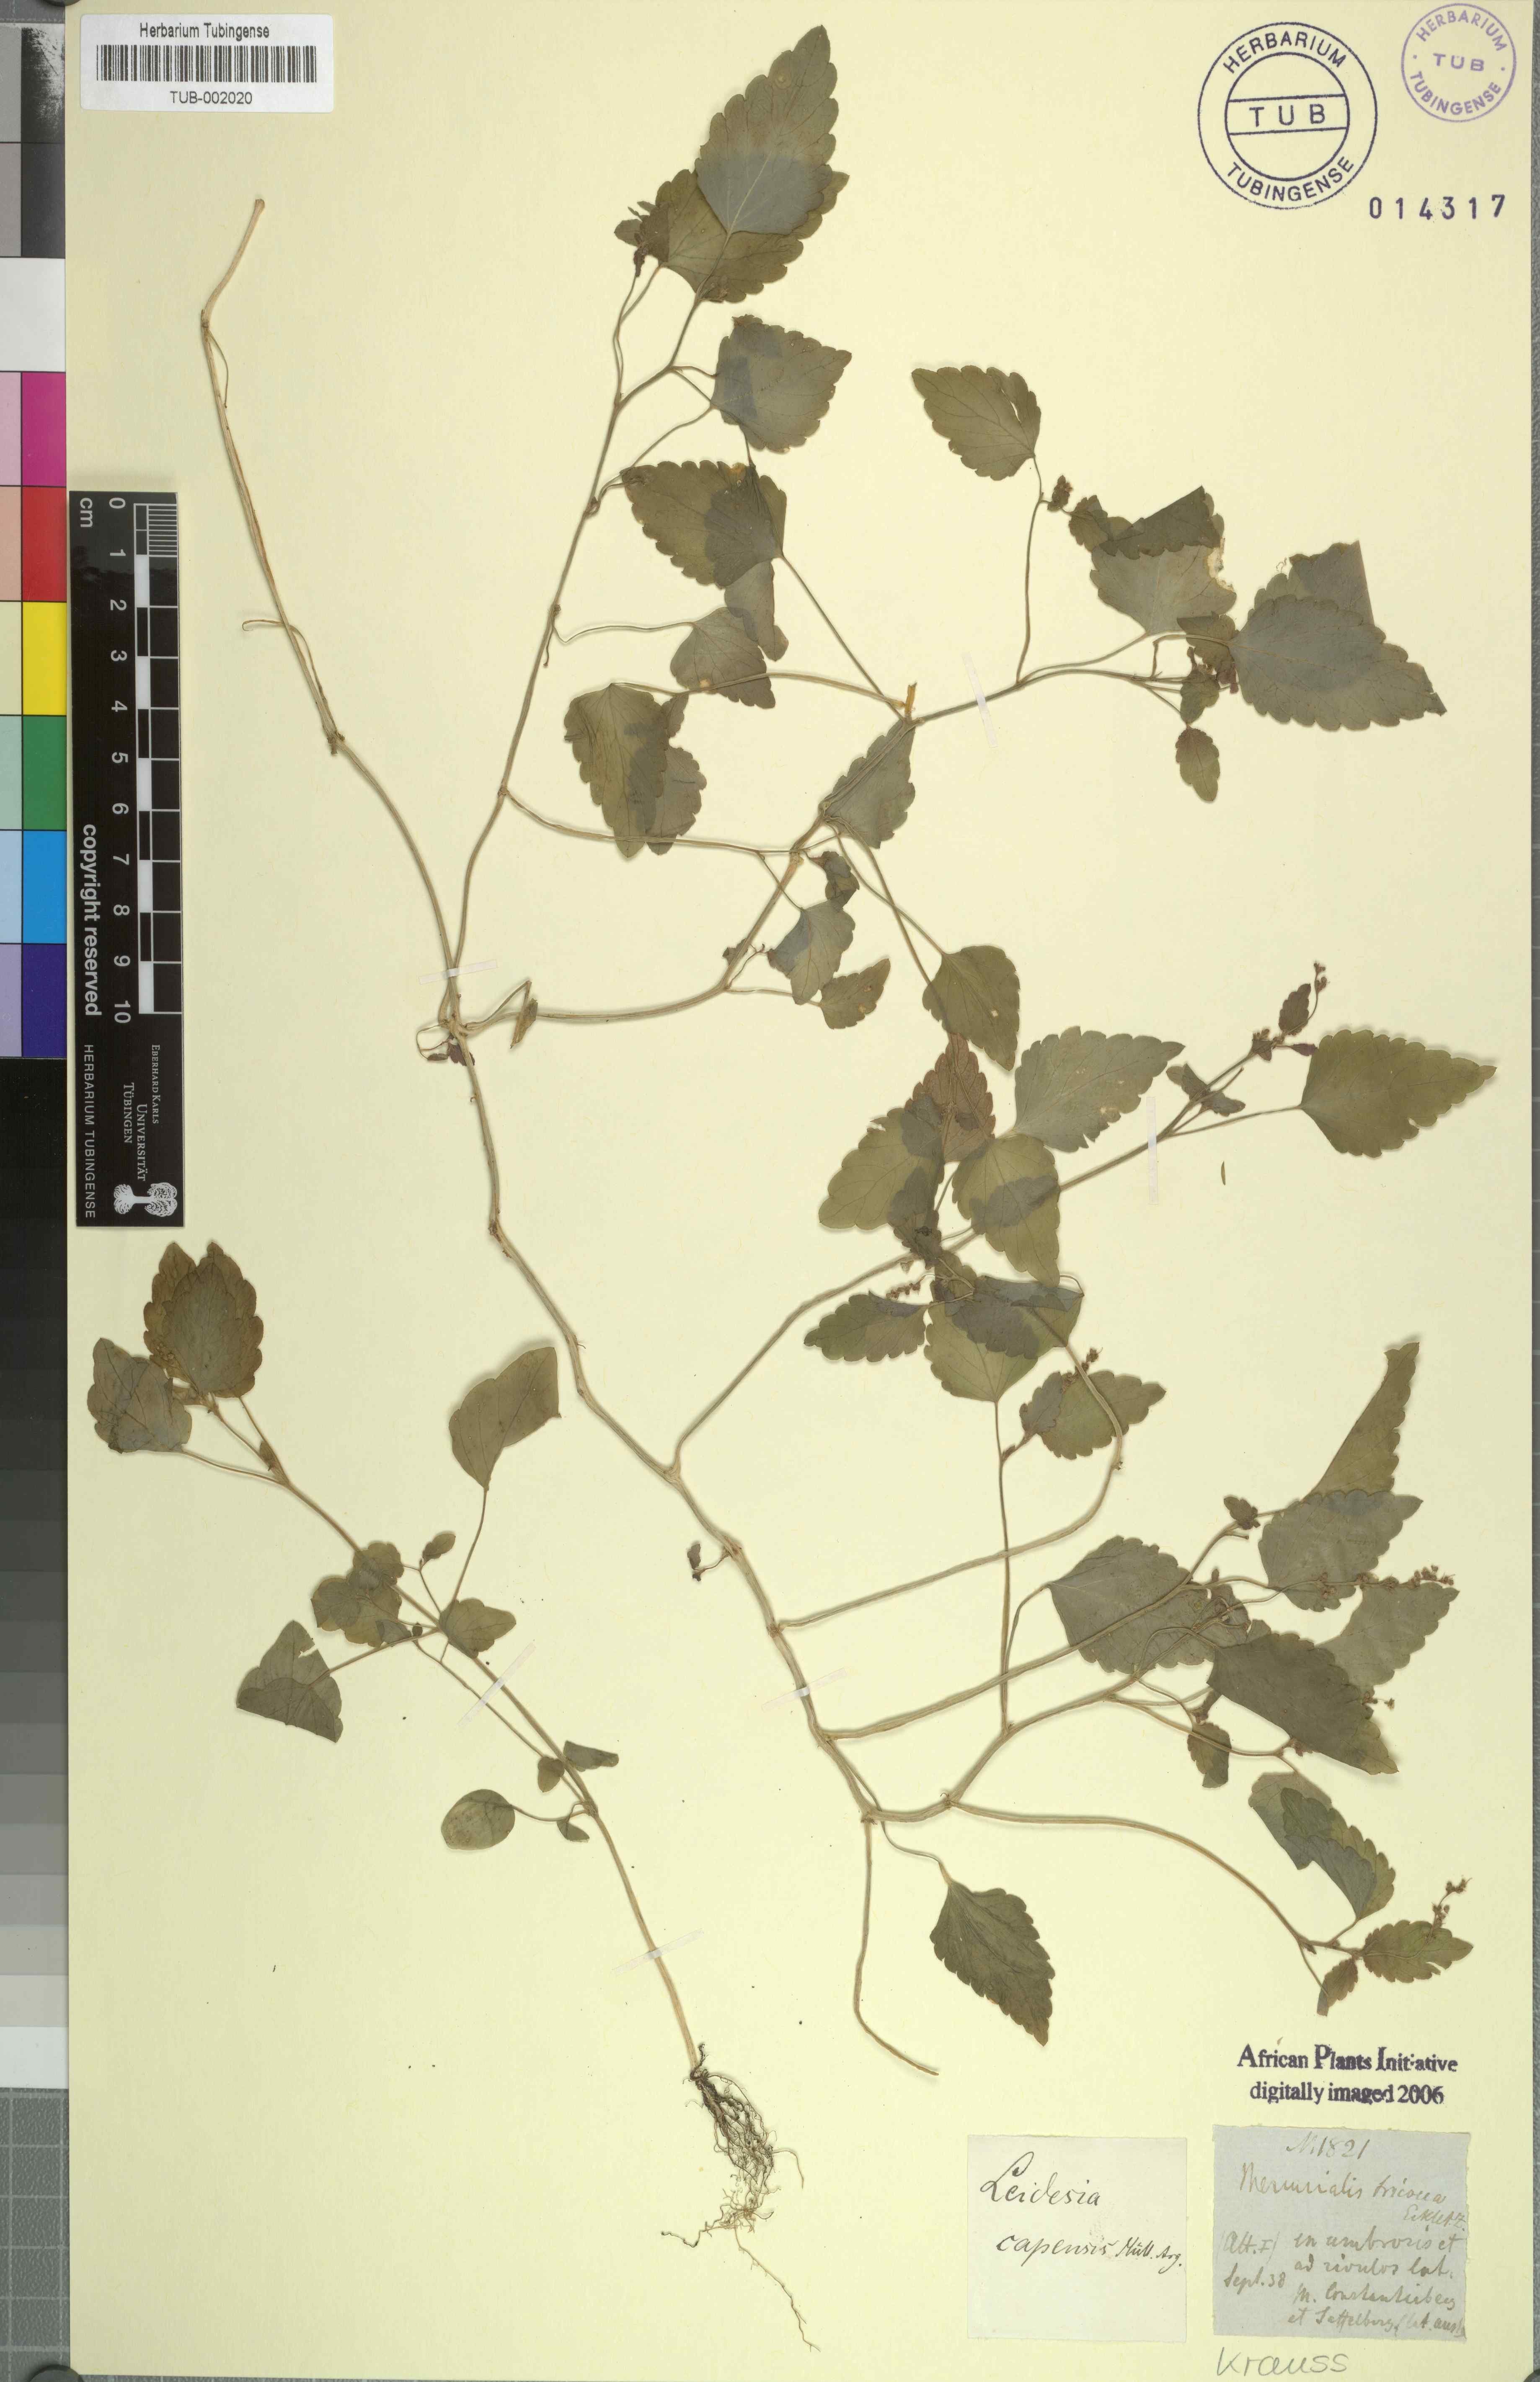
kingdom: Plantae
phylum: Tracheophyta
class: Magnoliopsida
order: Malpighiales
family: Euphorbiaceae
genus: Leidesia
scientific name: Leidesia procumbens
